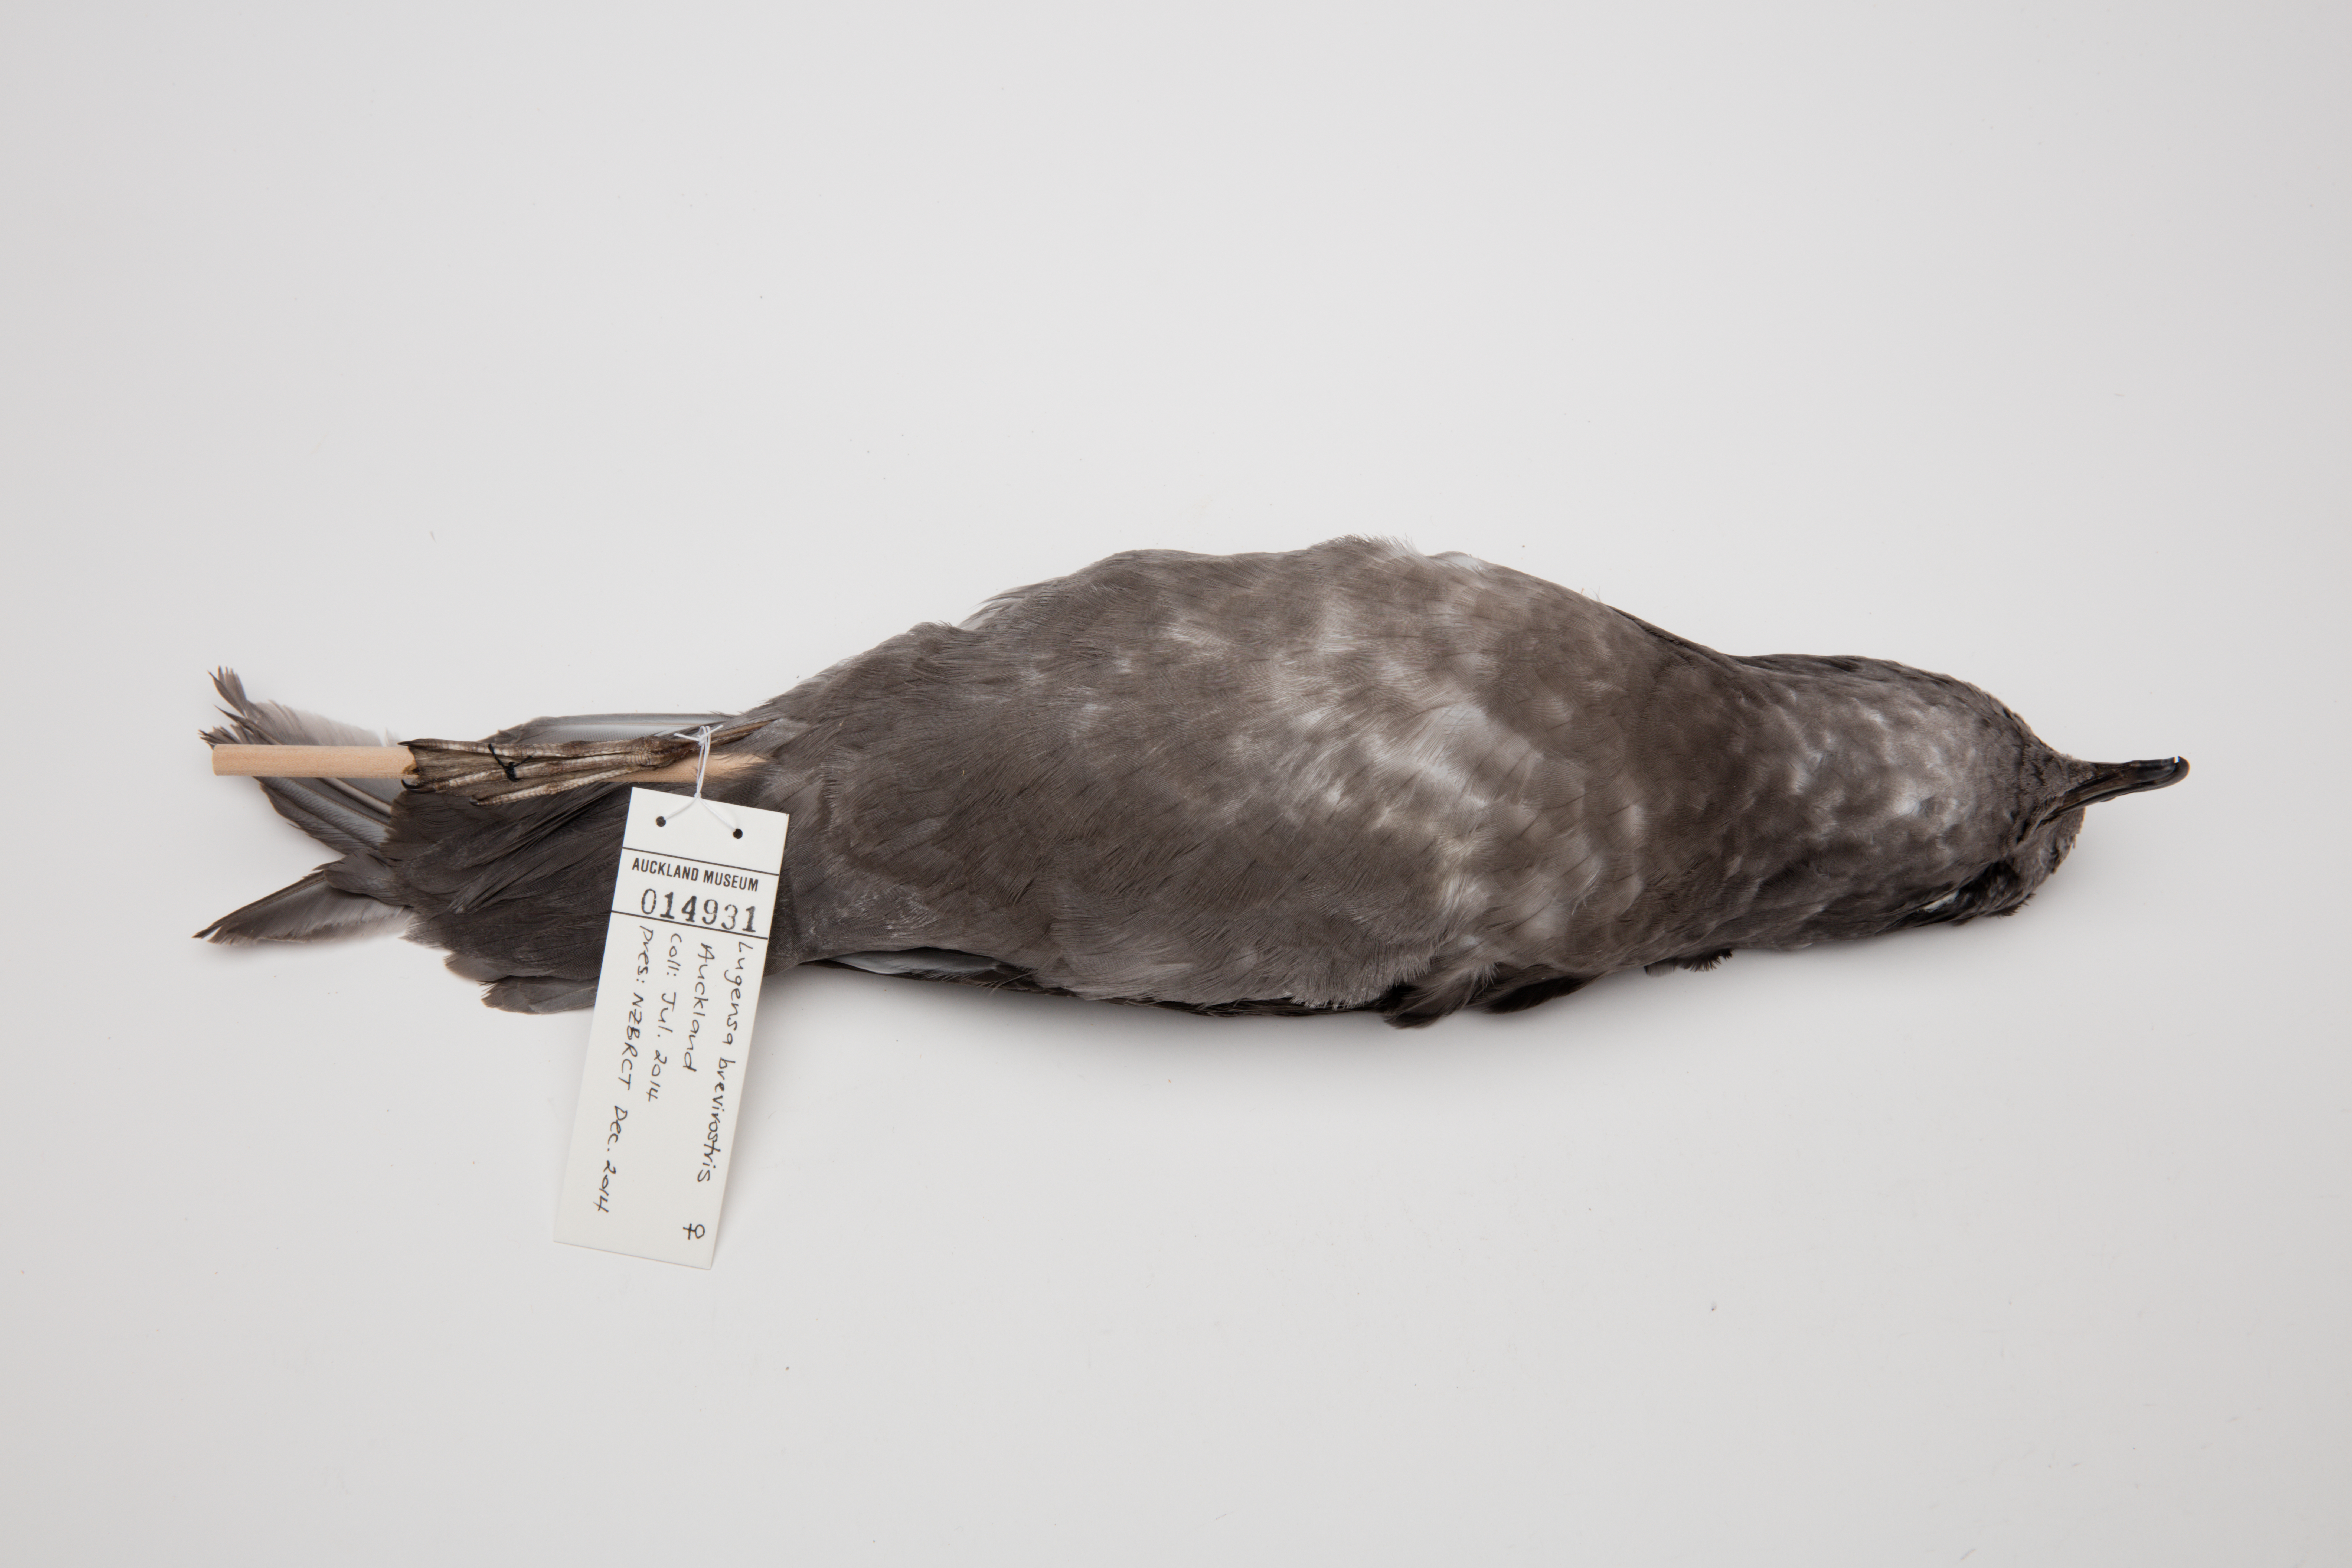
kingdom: Animalia
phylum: Chordata
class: Aves
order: Procellariiformes
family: Procellariidae
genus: Aphrodroma
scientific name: Aphrodroma brevirostris
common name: Kerguelen petrel
